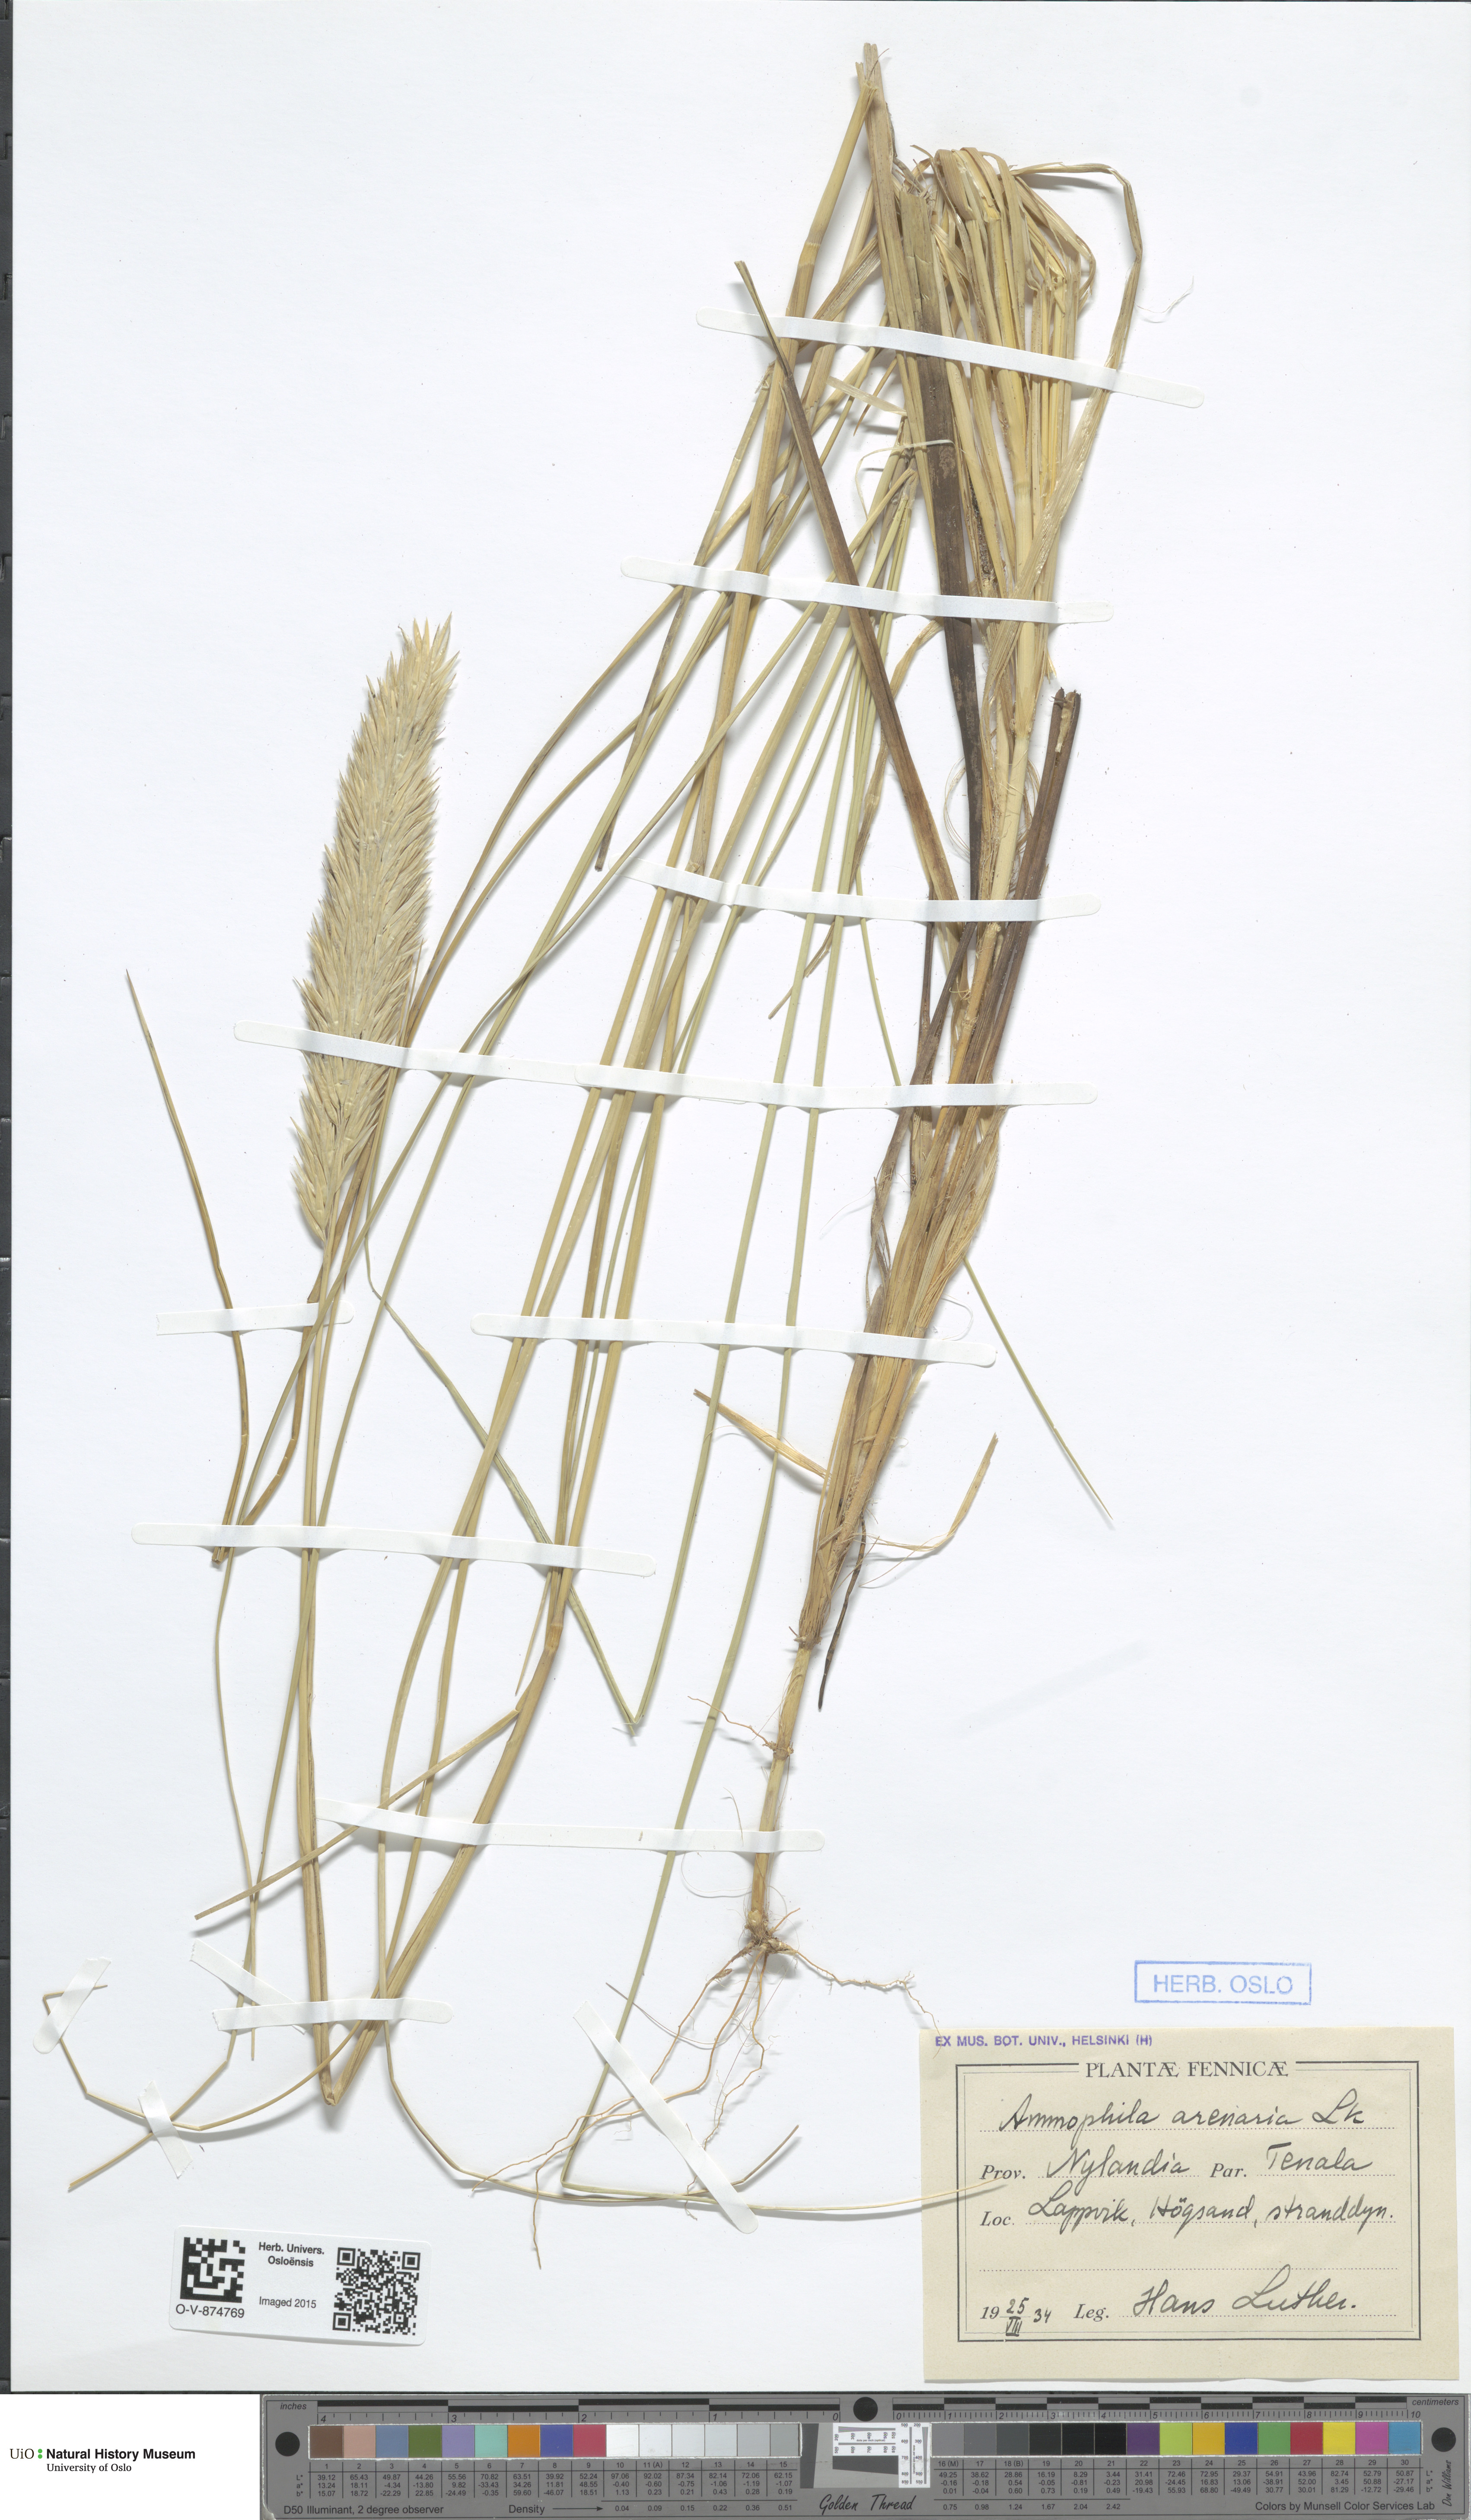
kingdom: Plantae
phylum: Tracheophyta
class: Liliopsida
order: Poales
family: Poaceae
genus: Calamagrostis
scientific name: Calamagrostis arenaria
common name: European beachgrass
